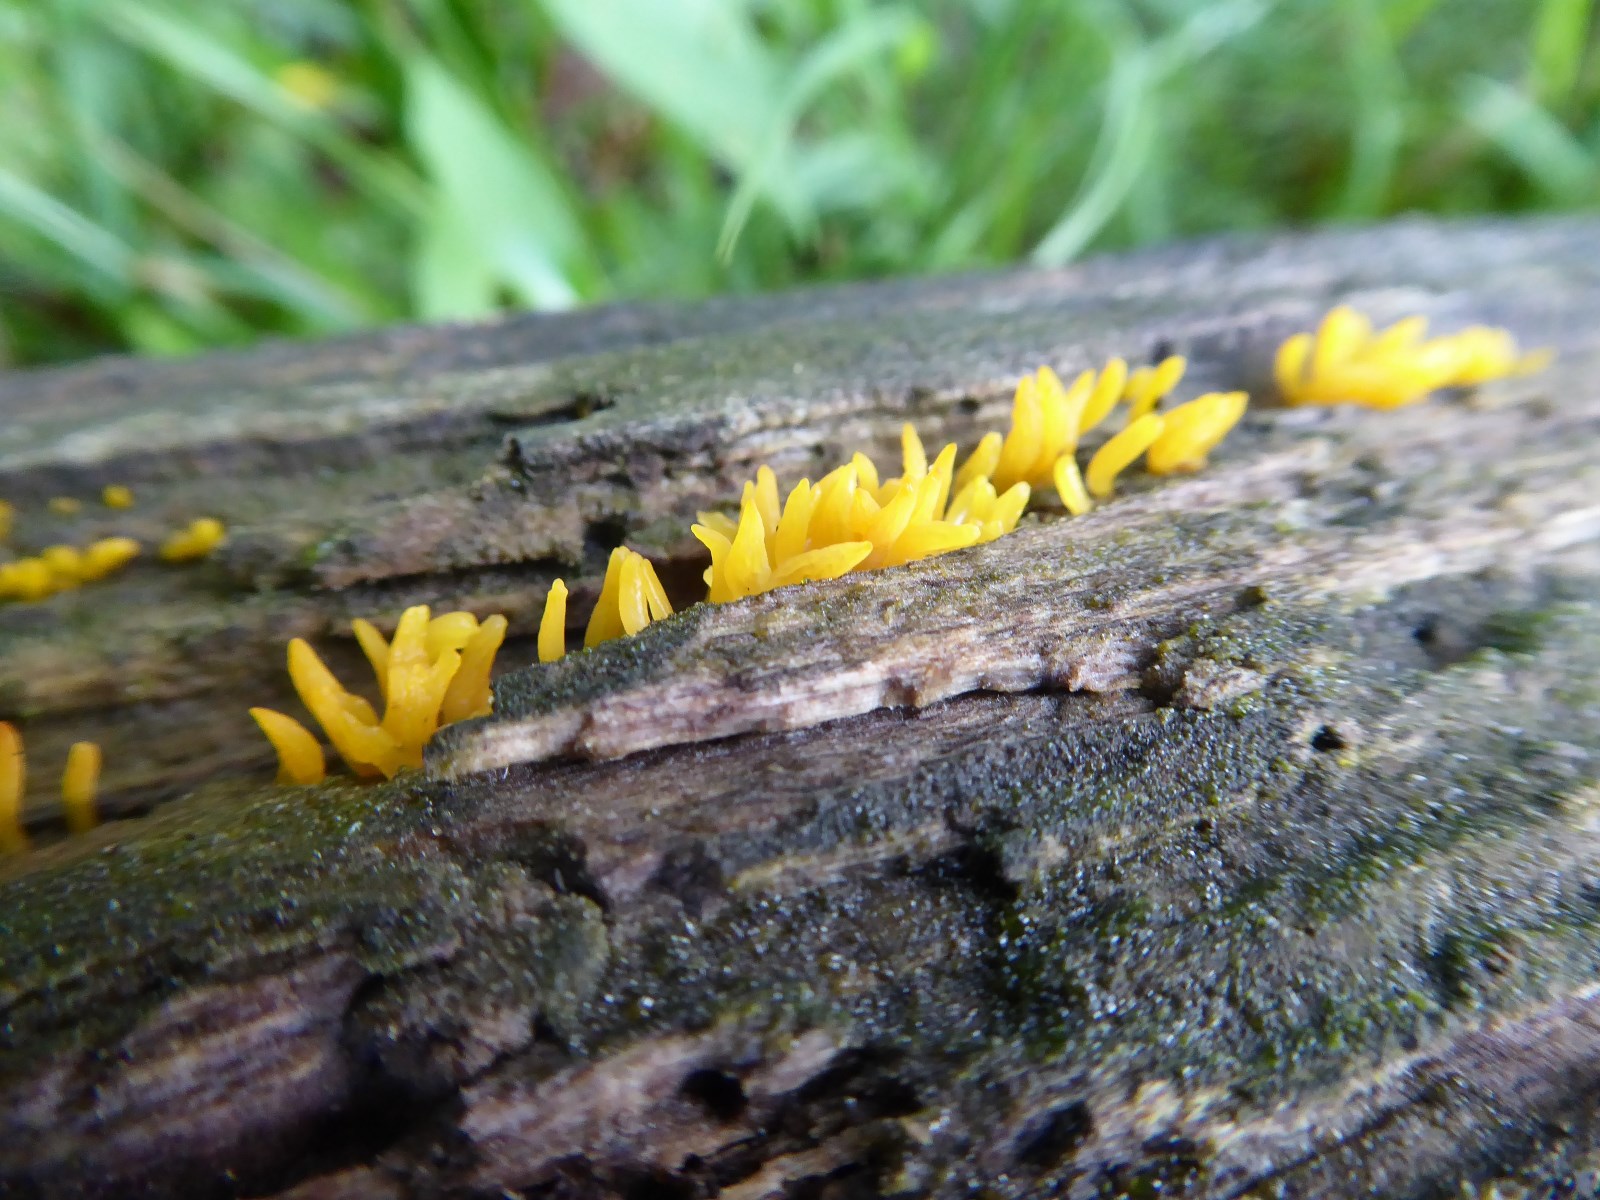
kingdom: Fungi
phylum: Basidiomycota
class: Dacrymycetes
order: Dacrymycetales
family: Dacrymycetaceae
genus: Calocera
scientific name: Calocera cornea
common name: liden guldgaffel
